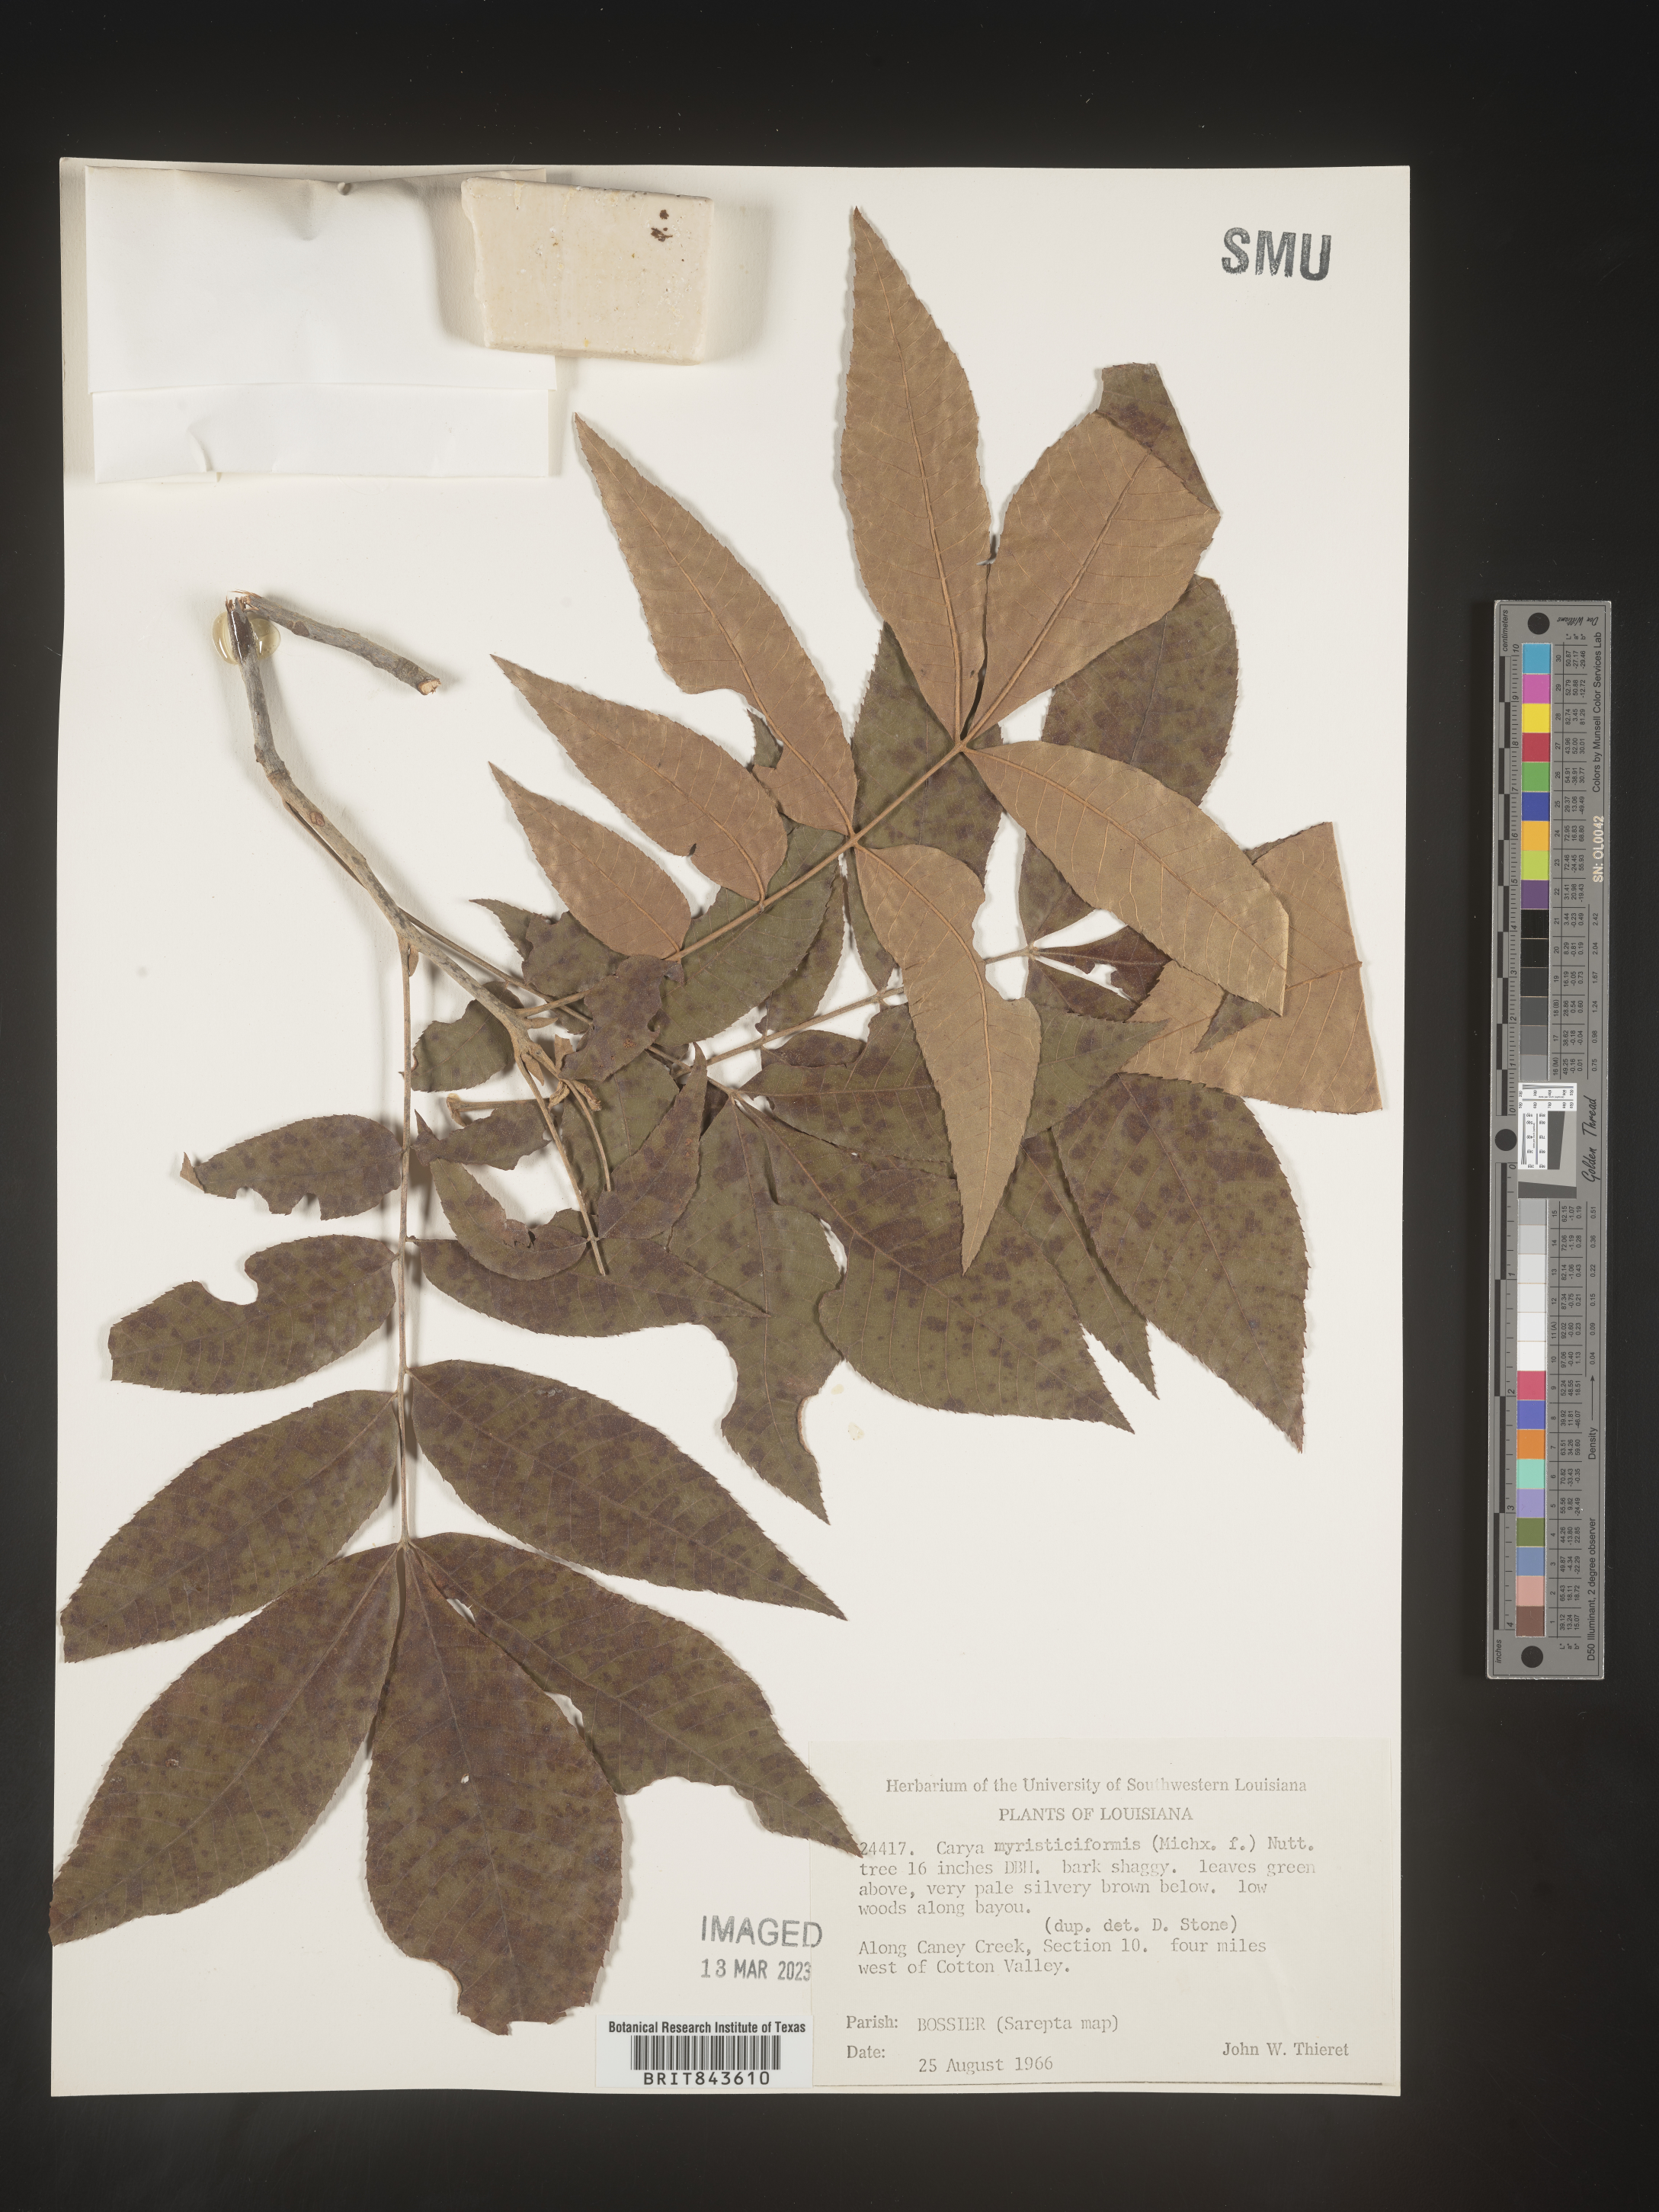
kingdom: Plantae
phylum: Tracheophyta
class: Magnoliopsida
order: Fagales
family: Juglandaceae
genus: Carya
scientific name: Carya myristiciformis
